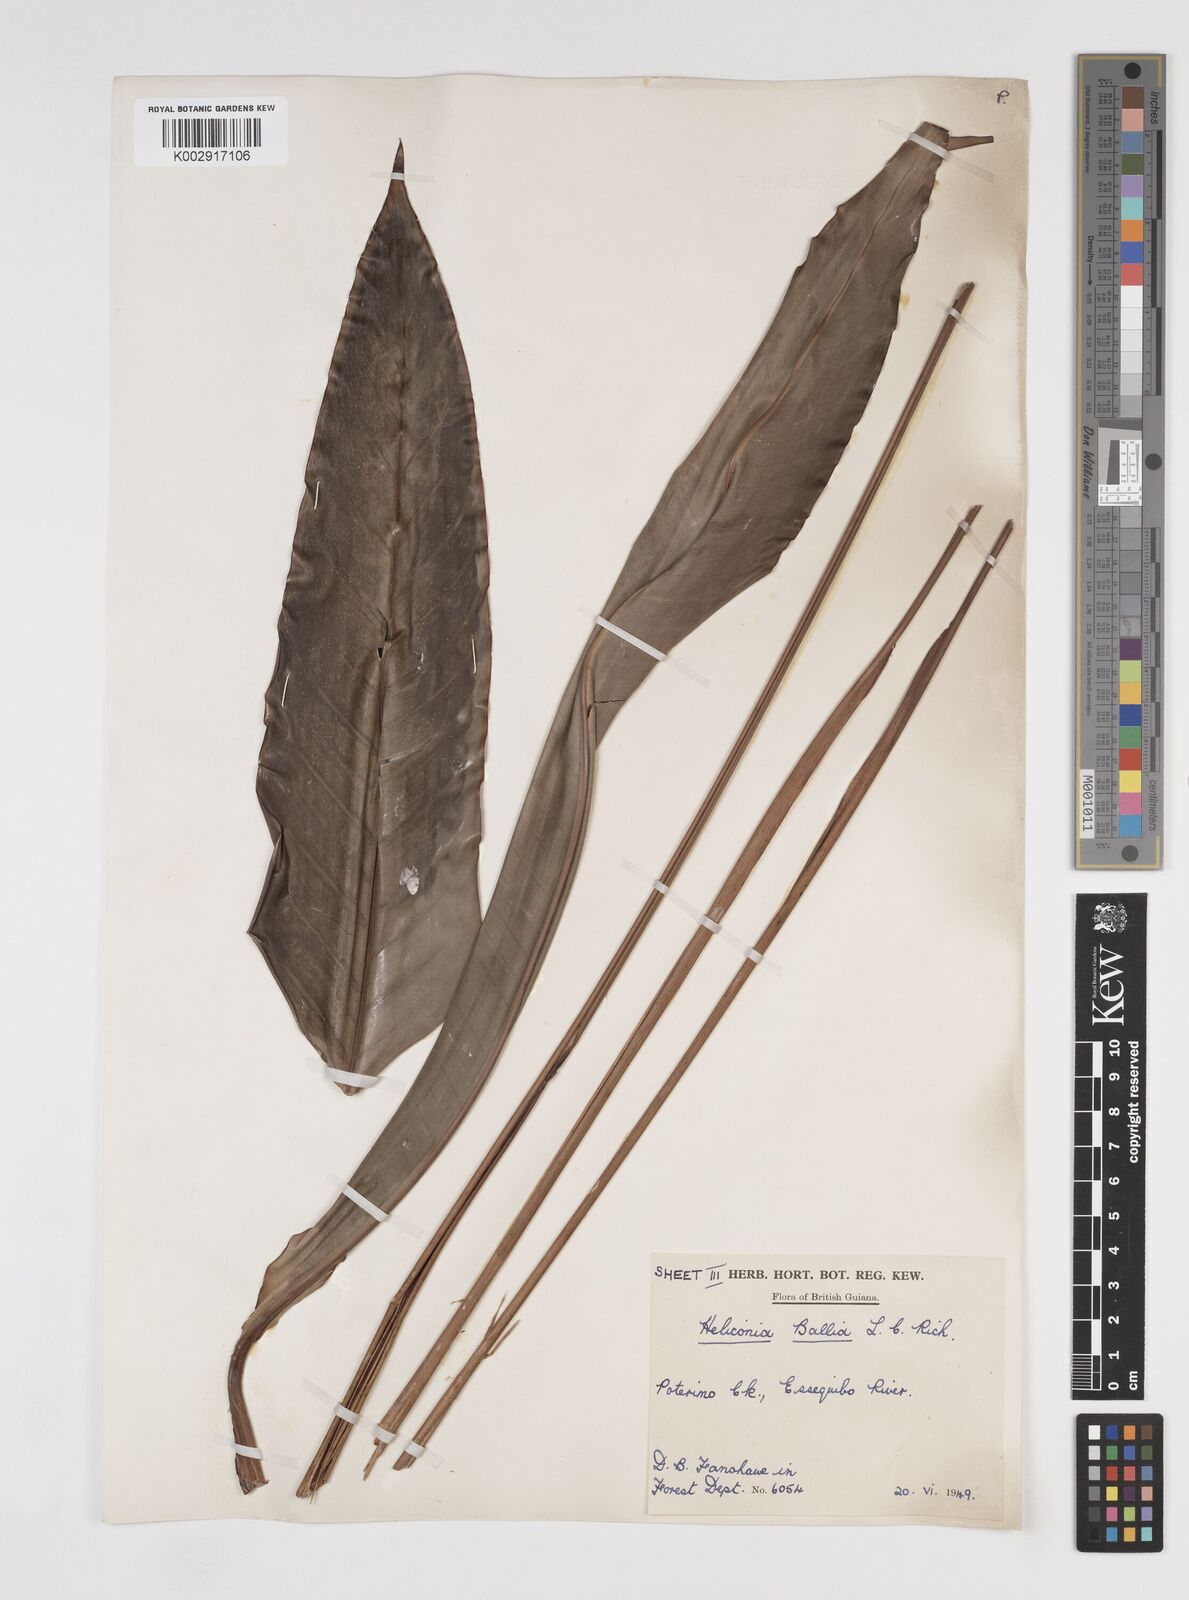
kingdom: Plantae
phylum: Tracheophyta
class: Liliopsida
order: Zingiberales
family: Heliconiaceae
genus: Heliconia
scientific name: Heliconia acuminata
